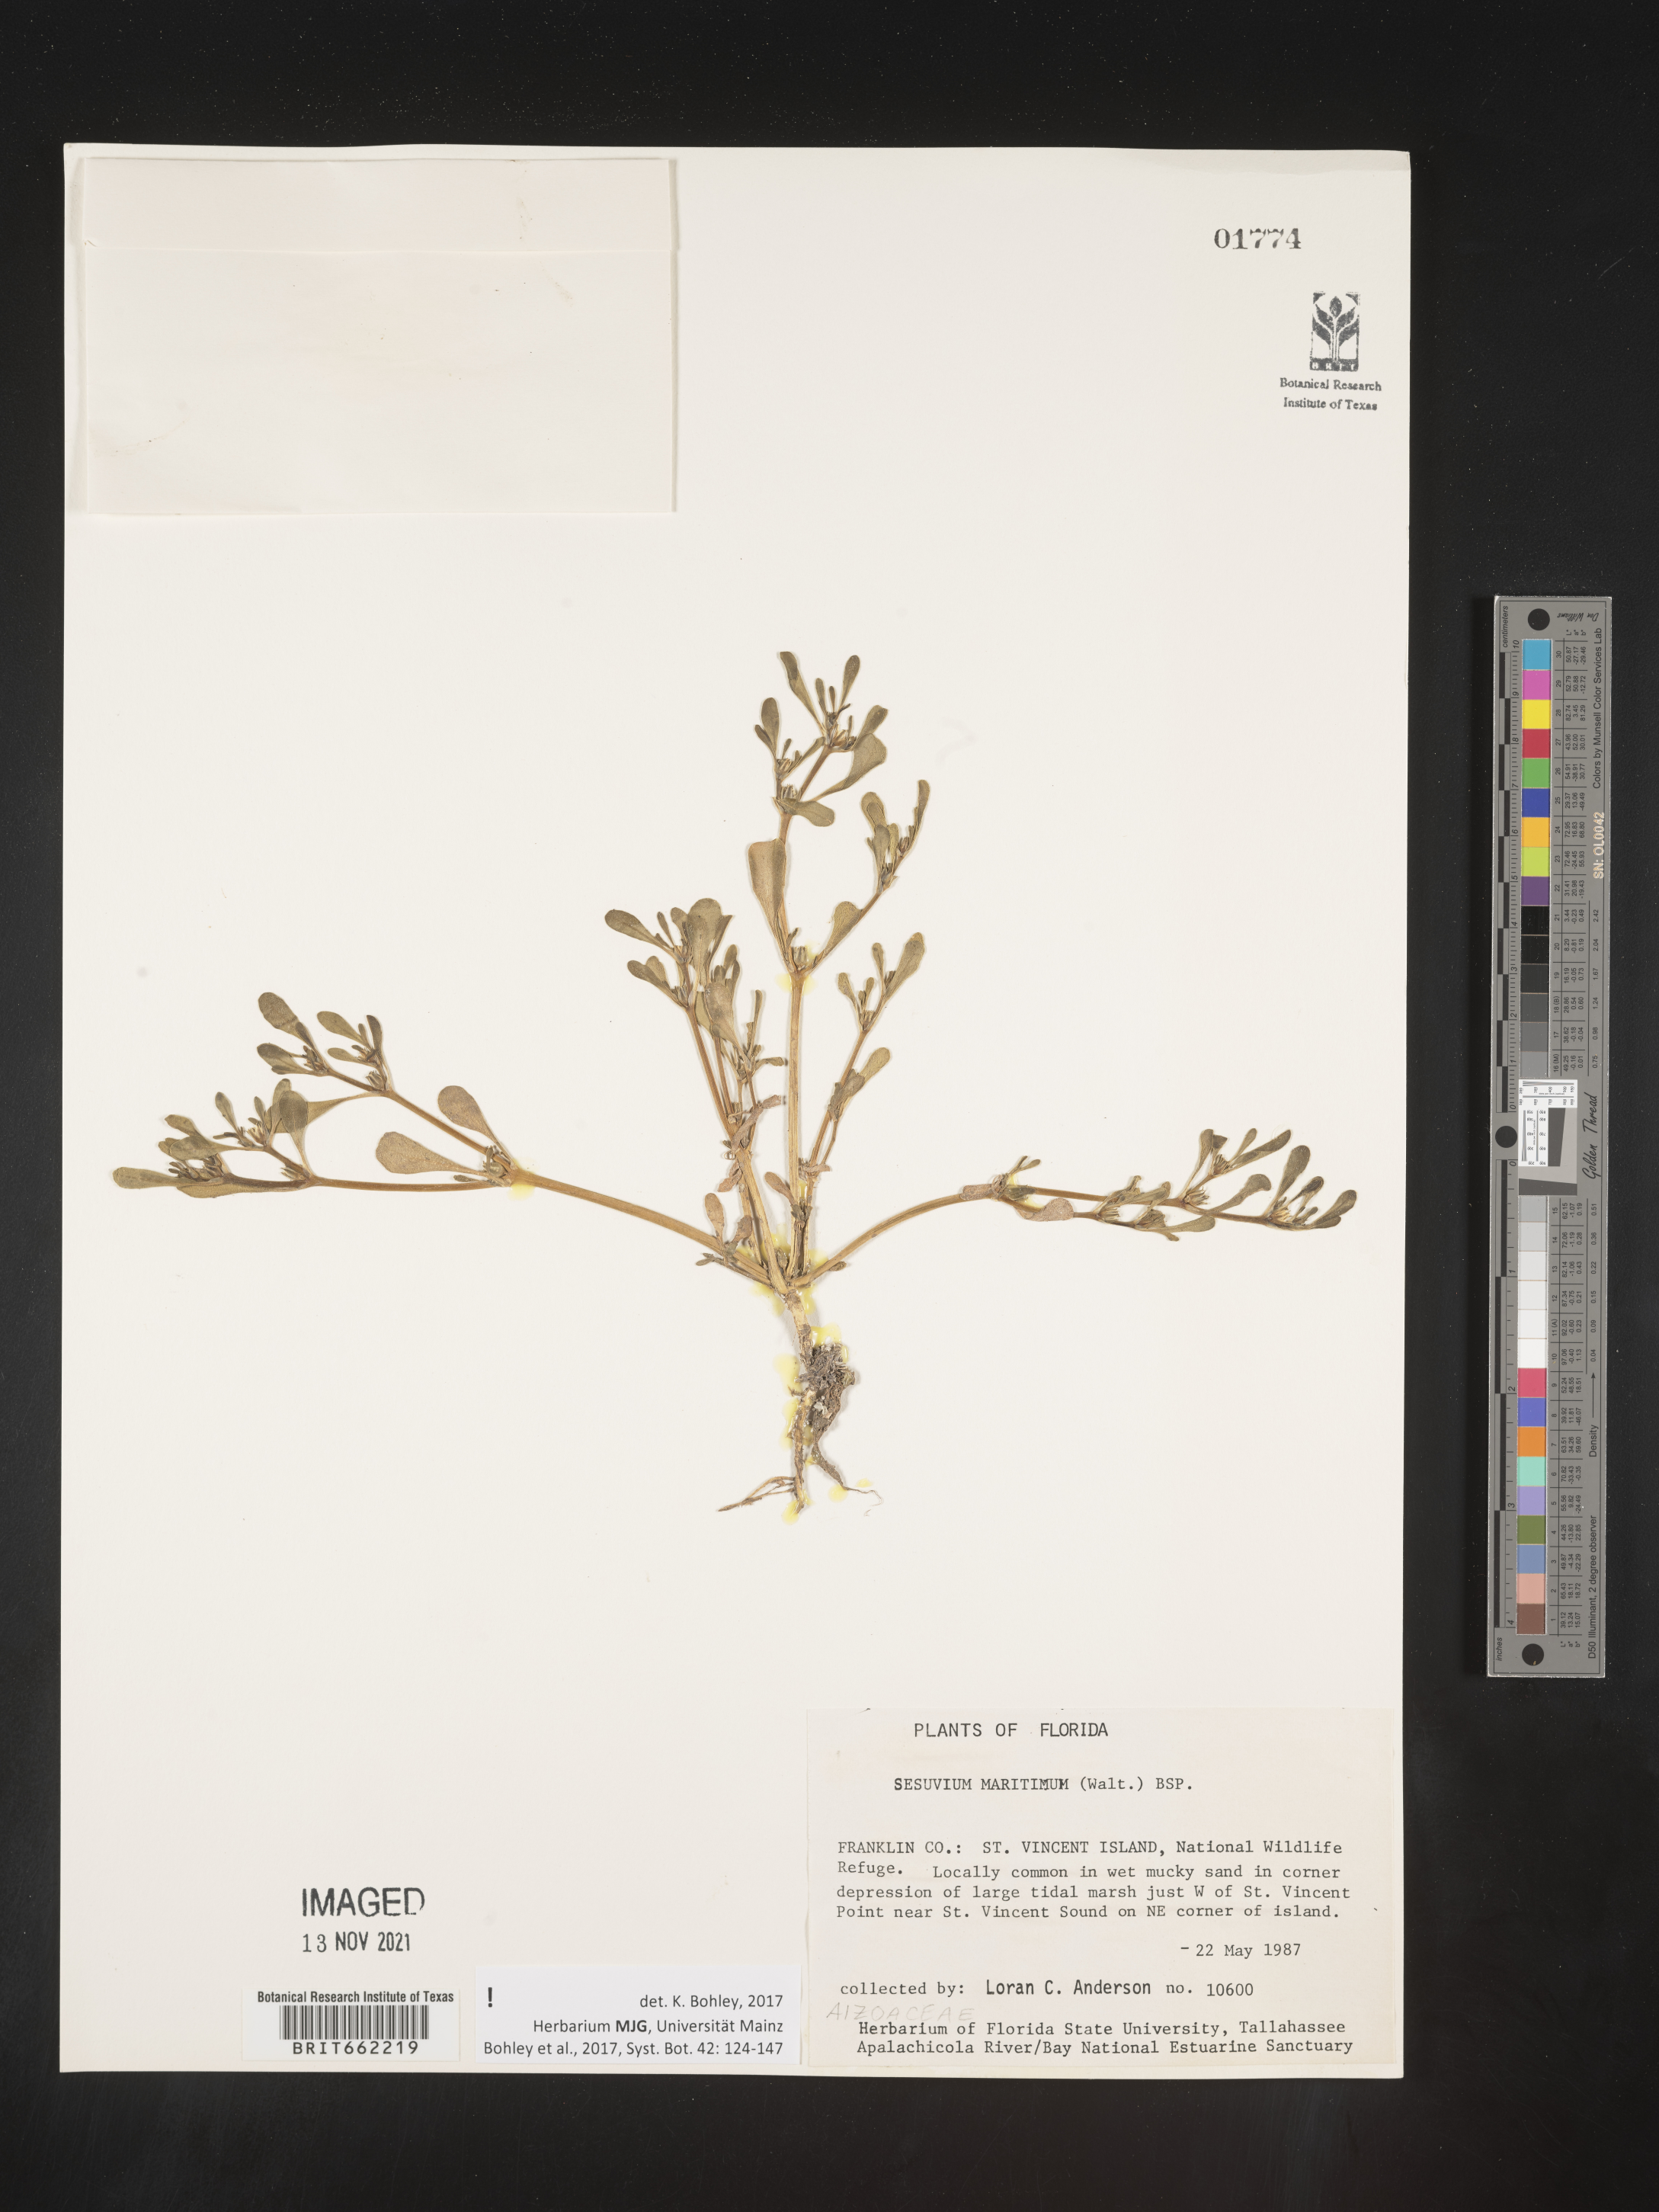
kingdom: Plantae
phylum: Tracheophyta
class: Magnoliopsida
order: Caryophyllales
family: Aizoaceae
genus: Sesuvium
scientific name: Sesuvium
